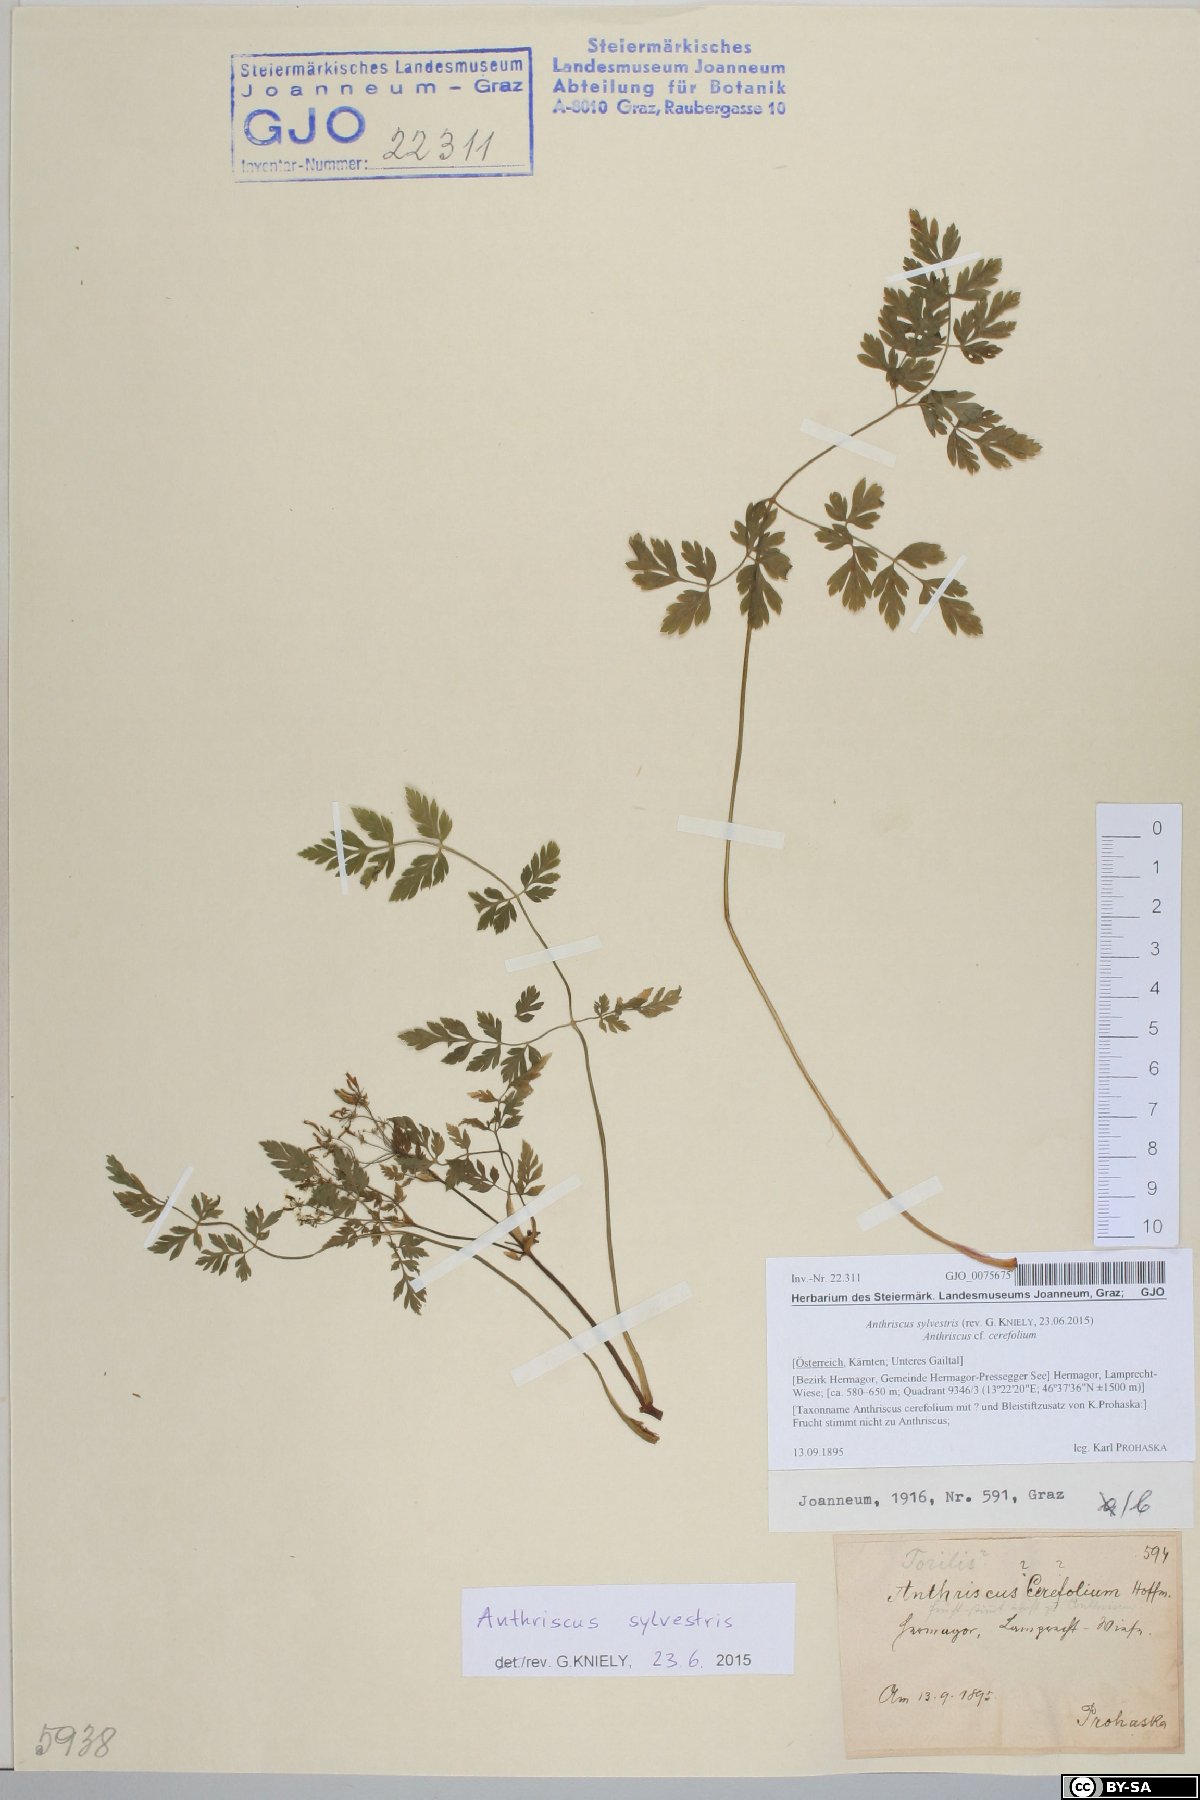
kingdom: Plantae
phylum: Tracheophyta
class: Magnoliopsida
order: Apiales
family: Apiaceae
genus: Anthriscus
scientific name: Anthriscus sylvestris
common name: Cow parsley
